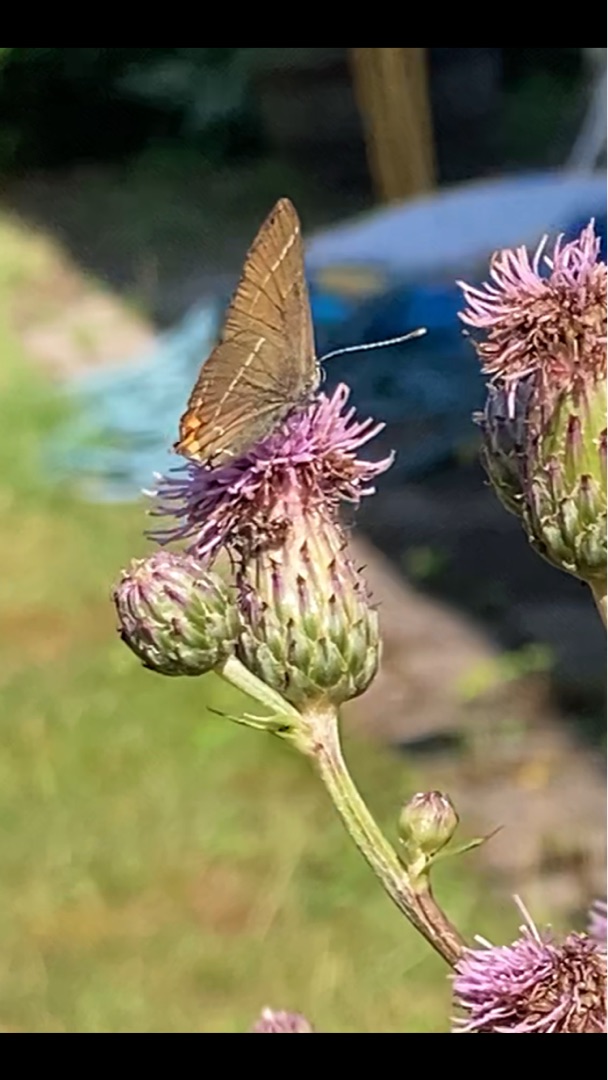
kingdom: Animalia
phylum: Arthropoda
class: Insecta
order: Lepidoptera
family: Lycaenidae
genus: Satyrium
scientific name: Satyrium w-album
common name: Det hvide W
